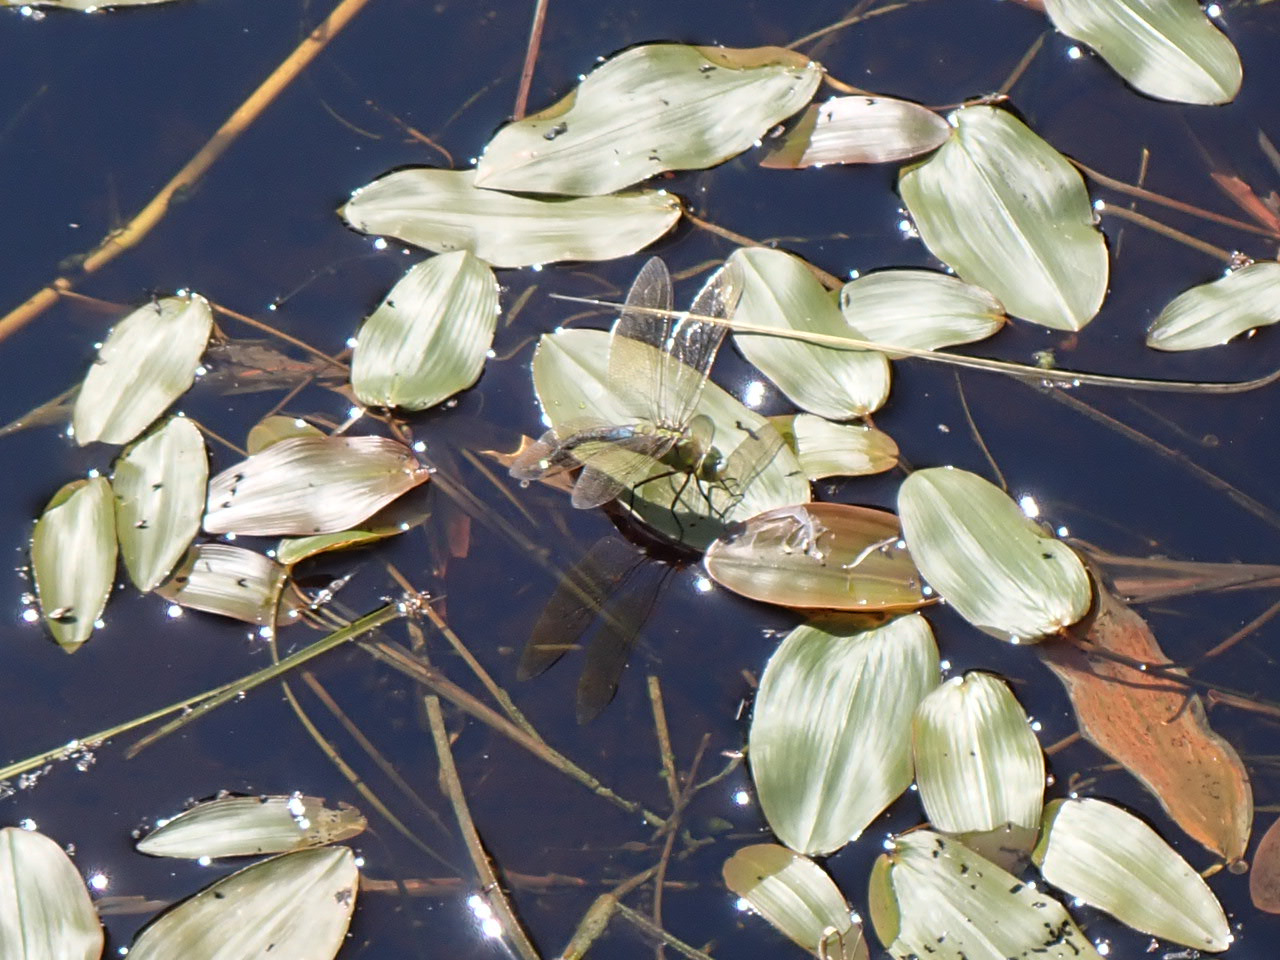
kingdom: Plantae
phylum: Tracheophyta
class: Liliopsida
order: Alismatales
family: Potamogetonaceae
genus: Potamogeton
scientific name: Potamogeton natans
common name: Svømmende vandaks
